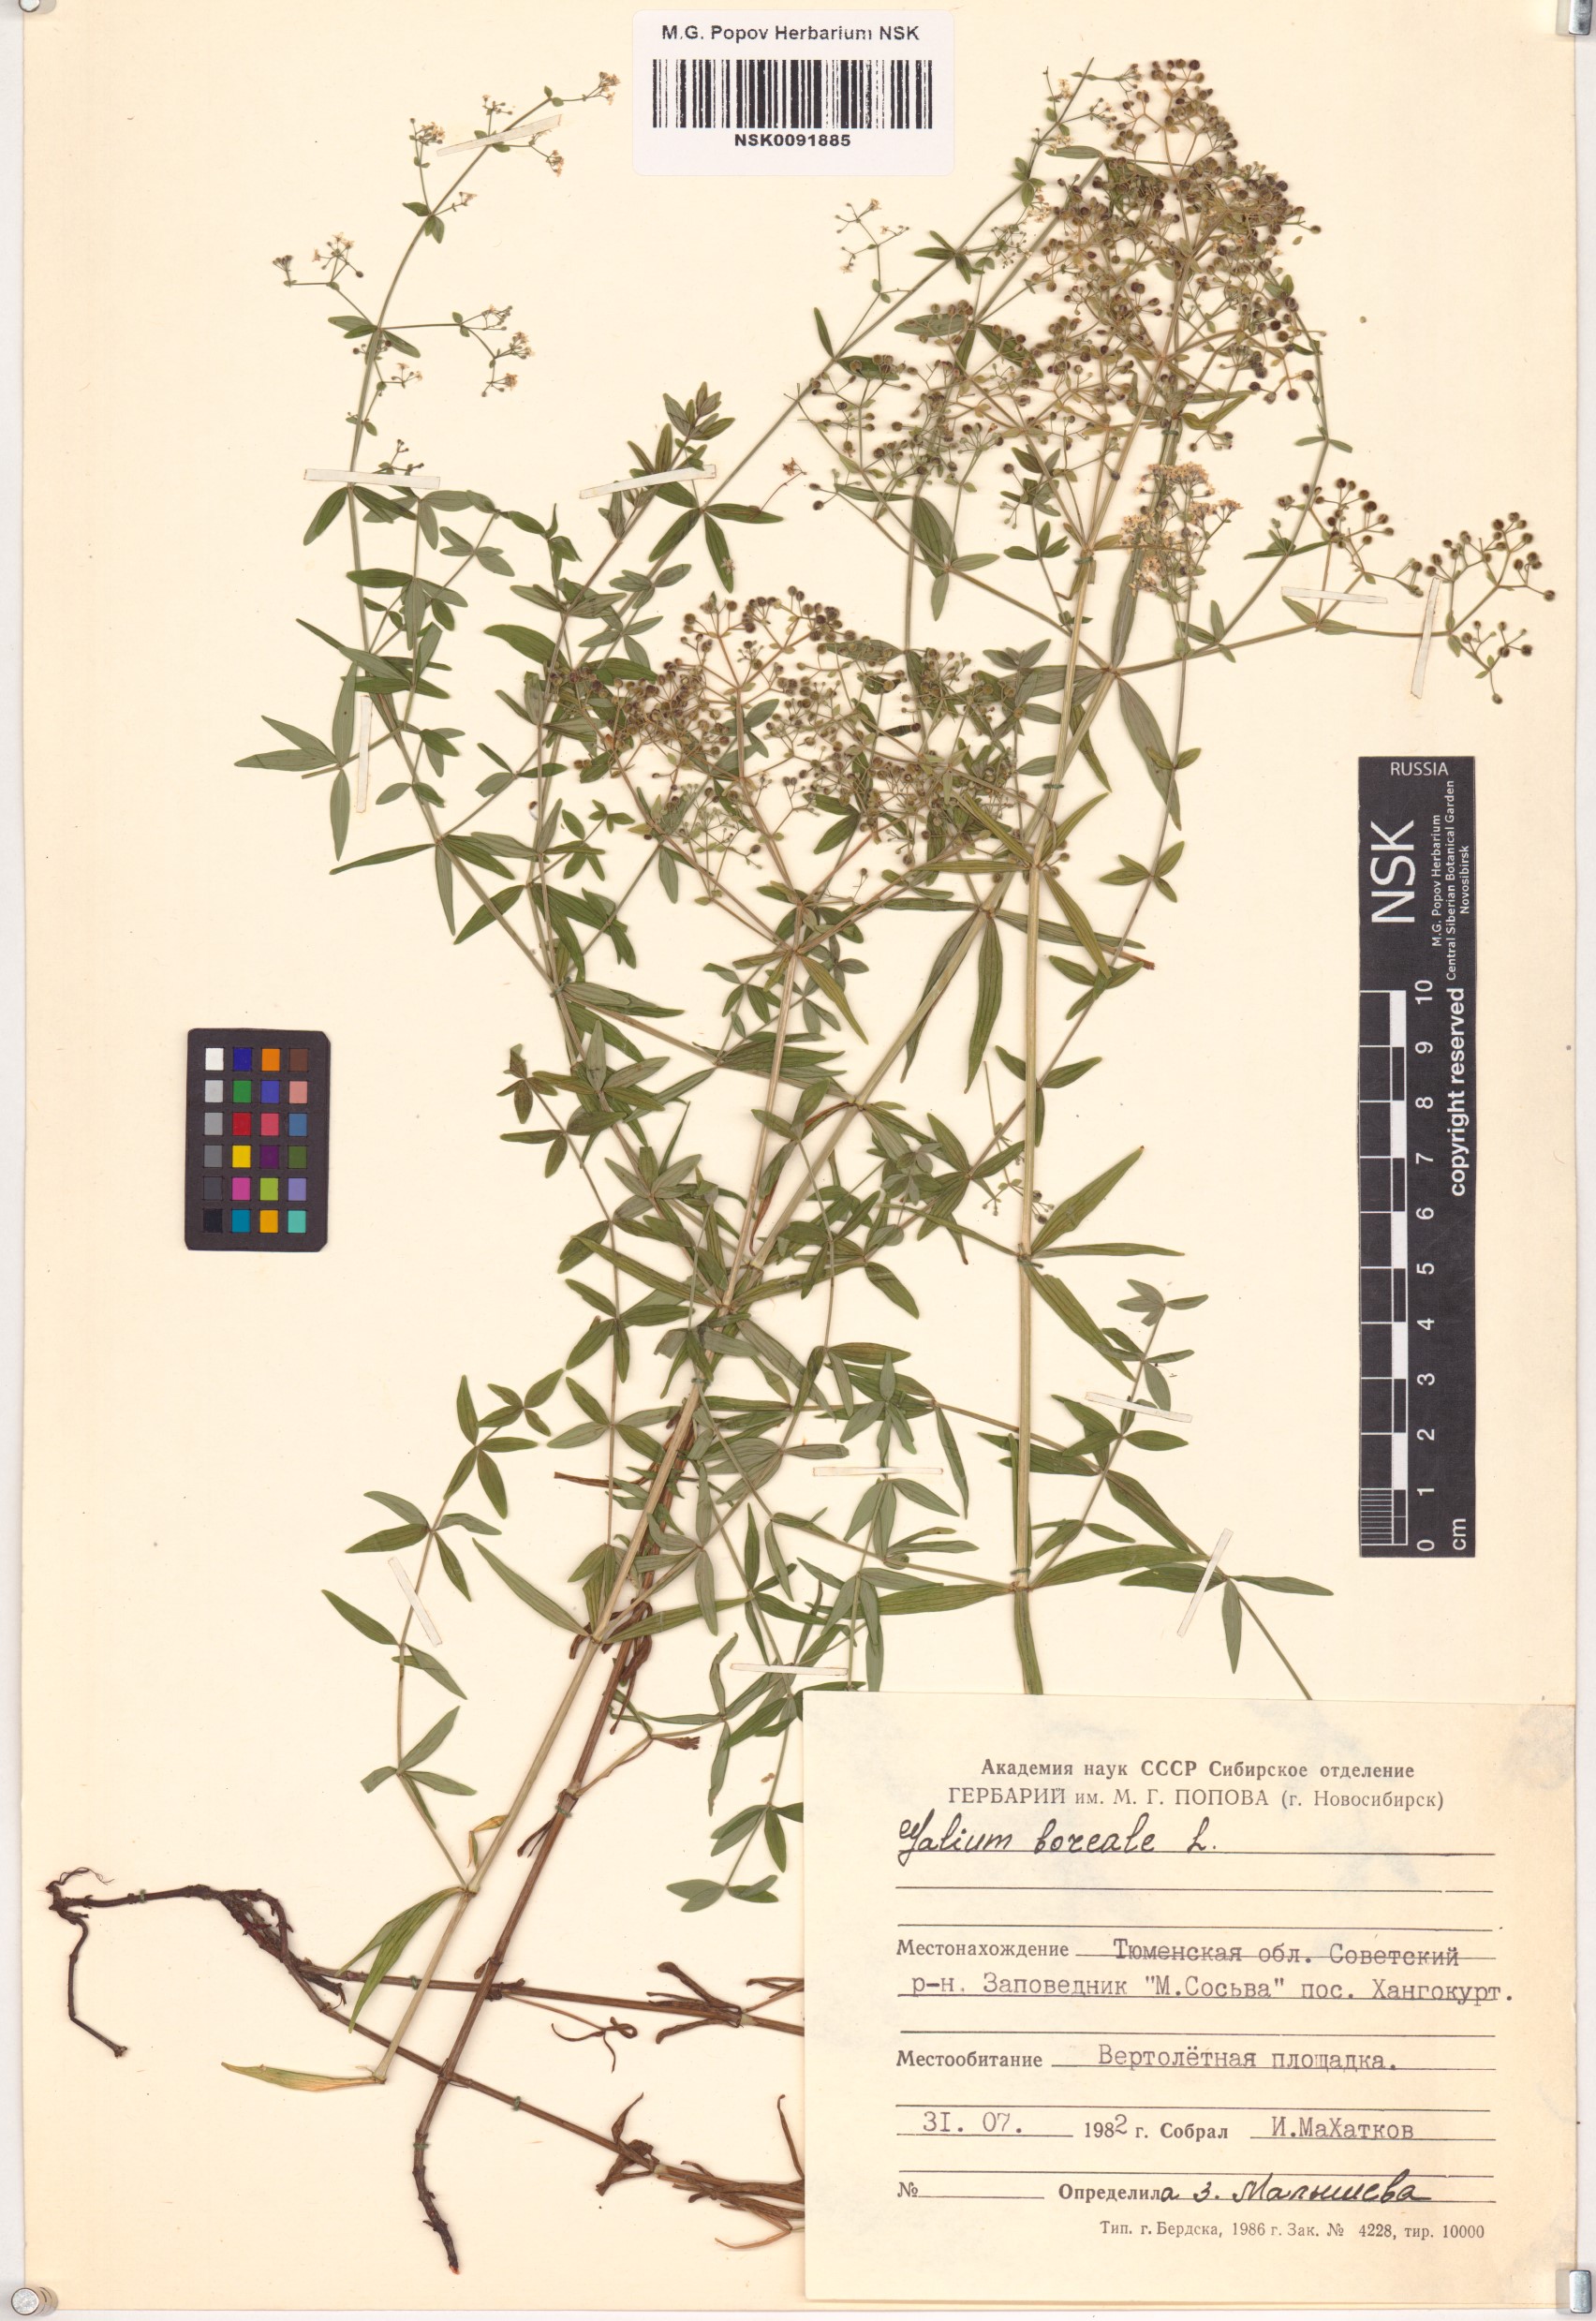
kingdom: Plantae
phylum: Tracheophyta
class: Magnoliopsida
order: Gentianales
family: Rubiaceae
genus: Galium
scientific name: Galium boreale
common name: Northern bedstraw
